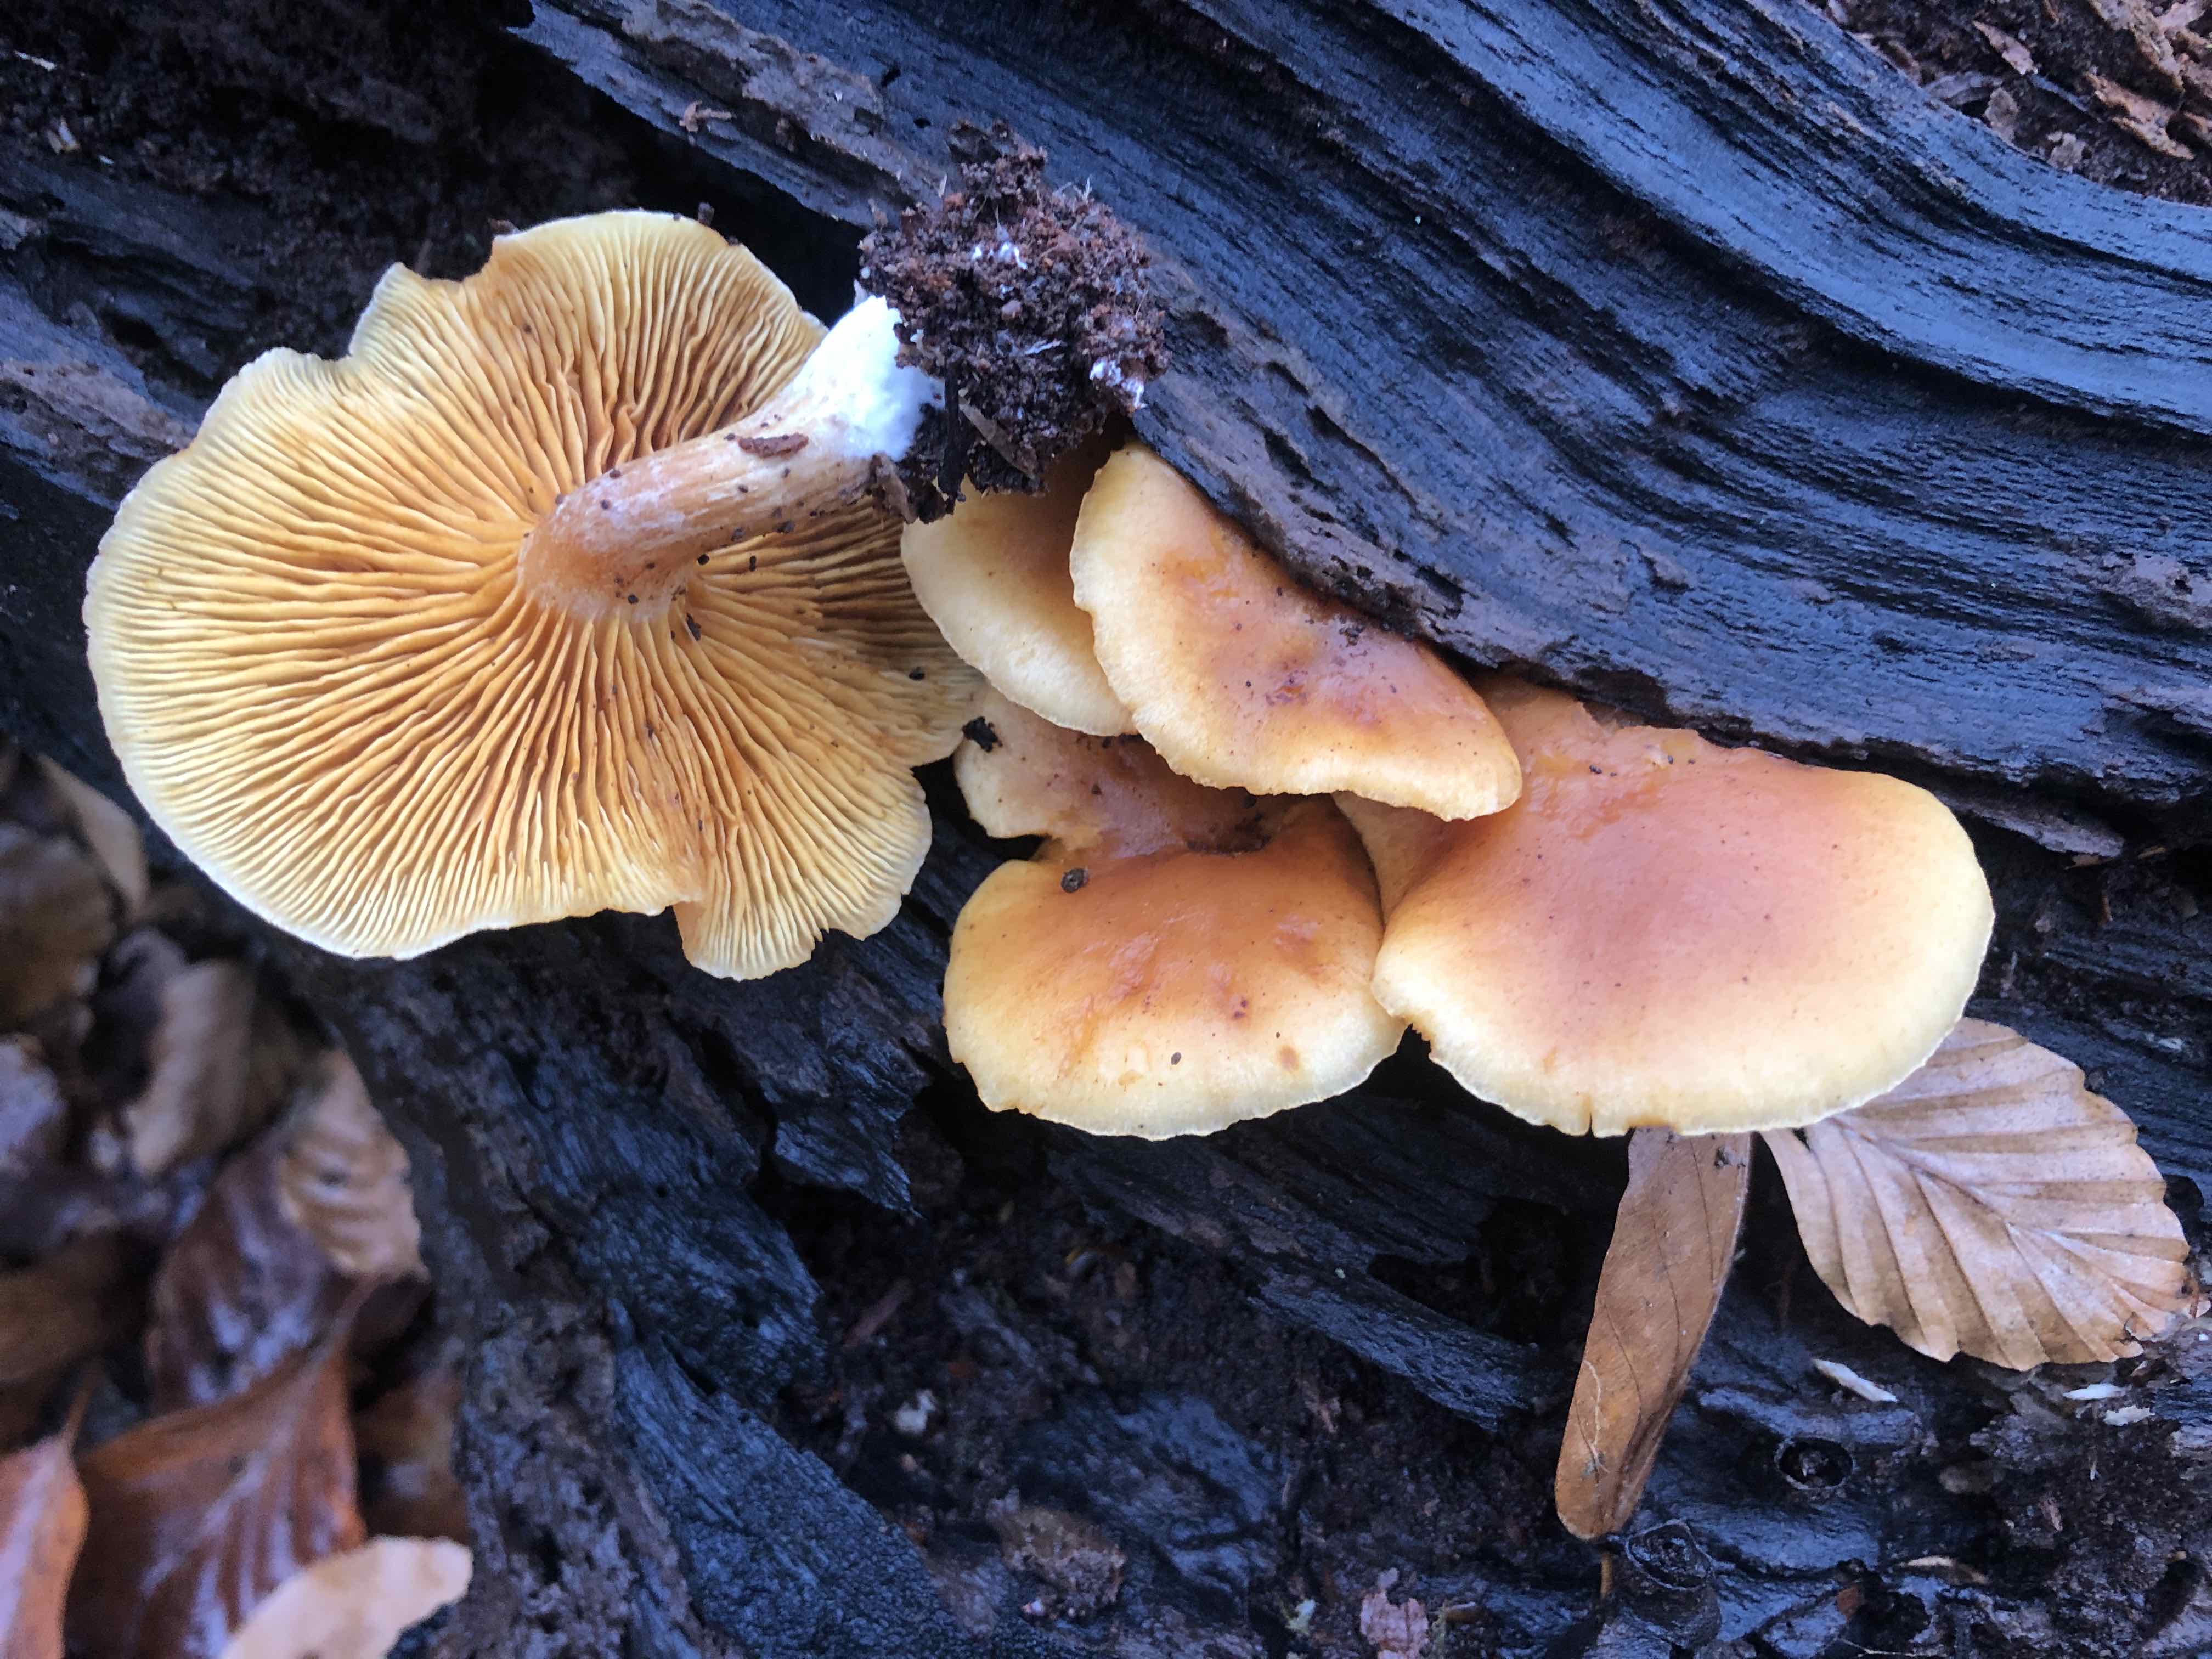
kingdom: Fungi
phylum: Basidiomycota
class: Agaricomycetes
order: Agaricales
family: Hymenogastraceae
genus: Gymnopilus
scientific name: Gymnopilus penetrans
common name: plettet flammehat
